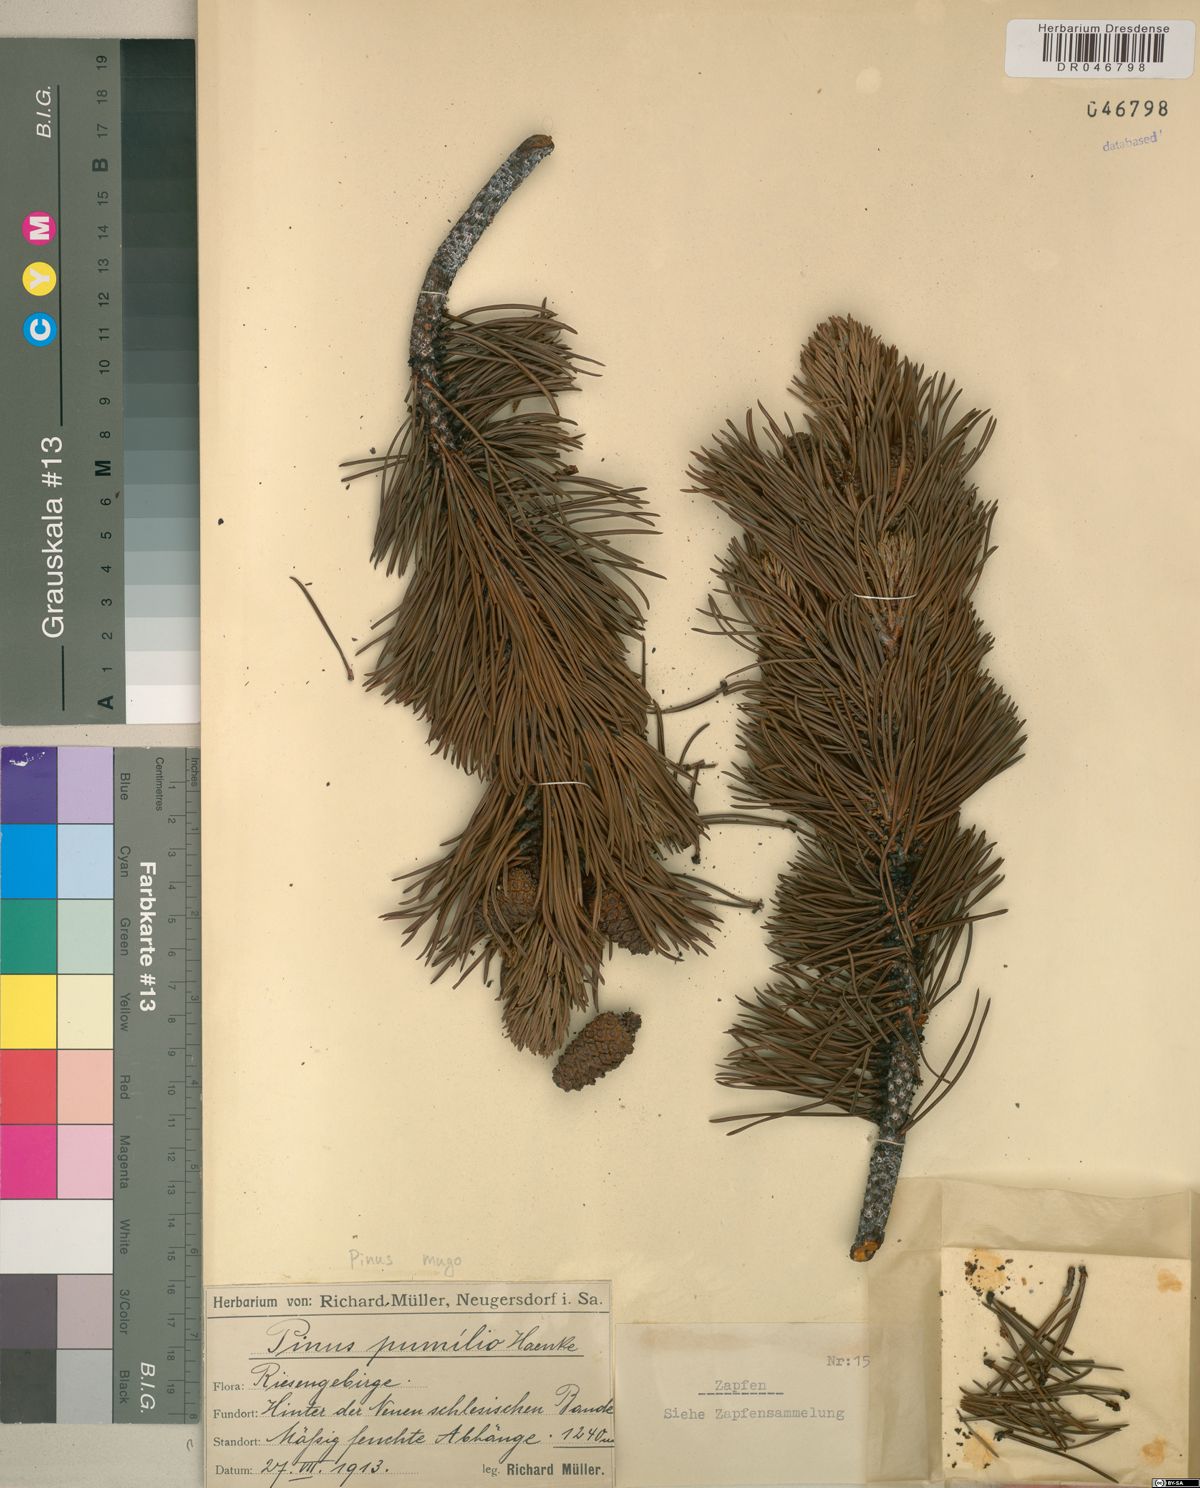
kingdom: Plantae
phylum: Tracheophyta
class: Pinopsida
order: Pinales
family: Pinaceae
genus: Pinus
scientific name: Pinus mugo
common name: Mugo pine
